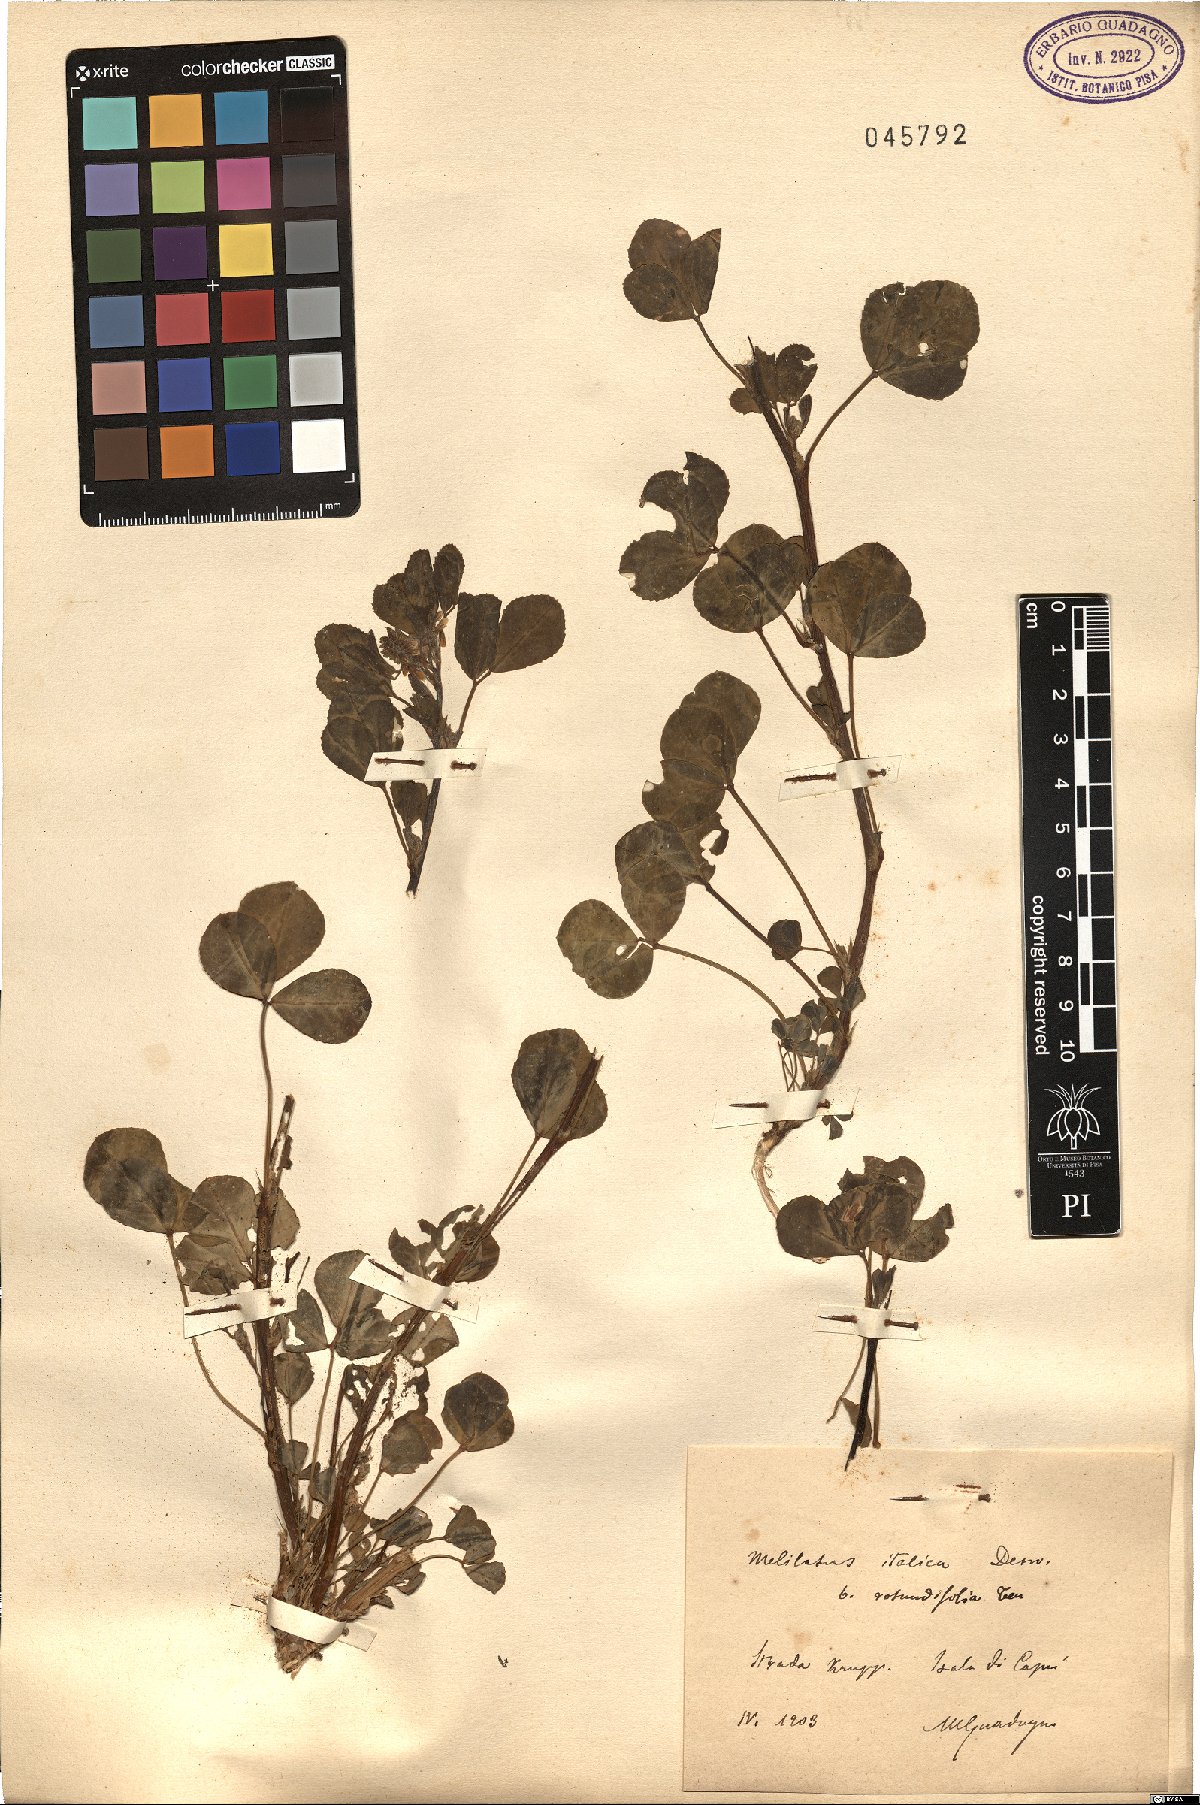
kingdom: Plantae
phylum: Tracheophyta
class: Magnoliopsida
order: Fabales
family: Fabaceae
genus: Melilotus
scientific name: Melilotus italicus
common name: Italian melilot
